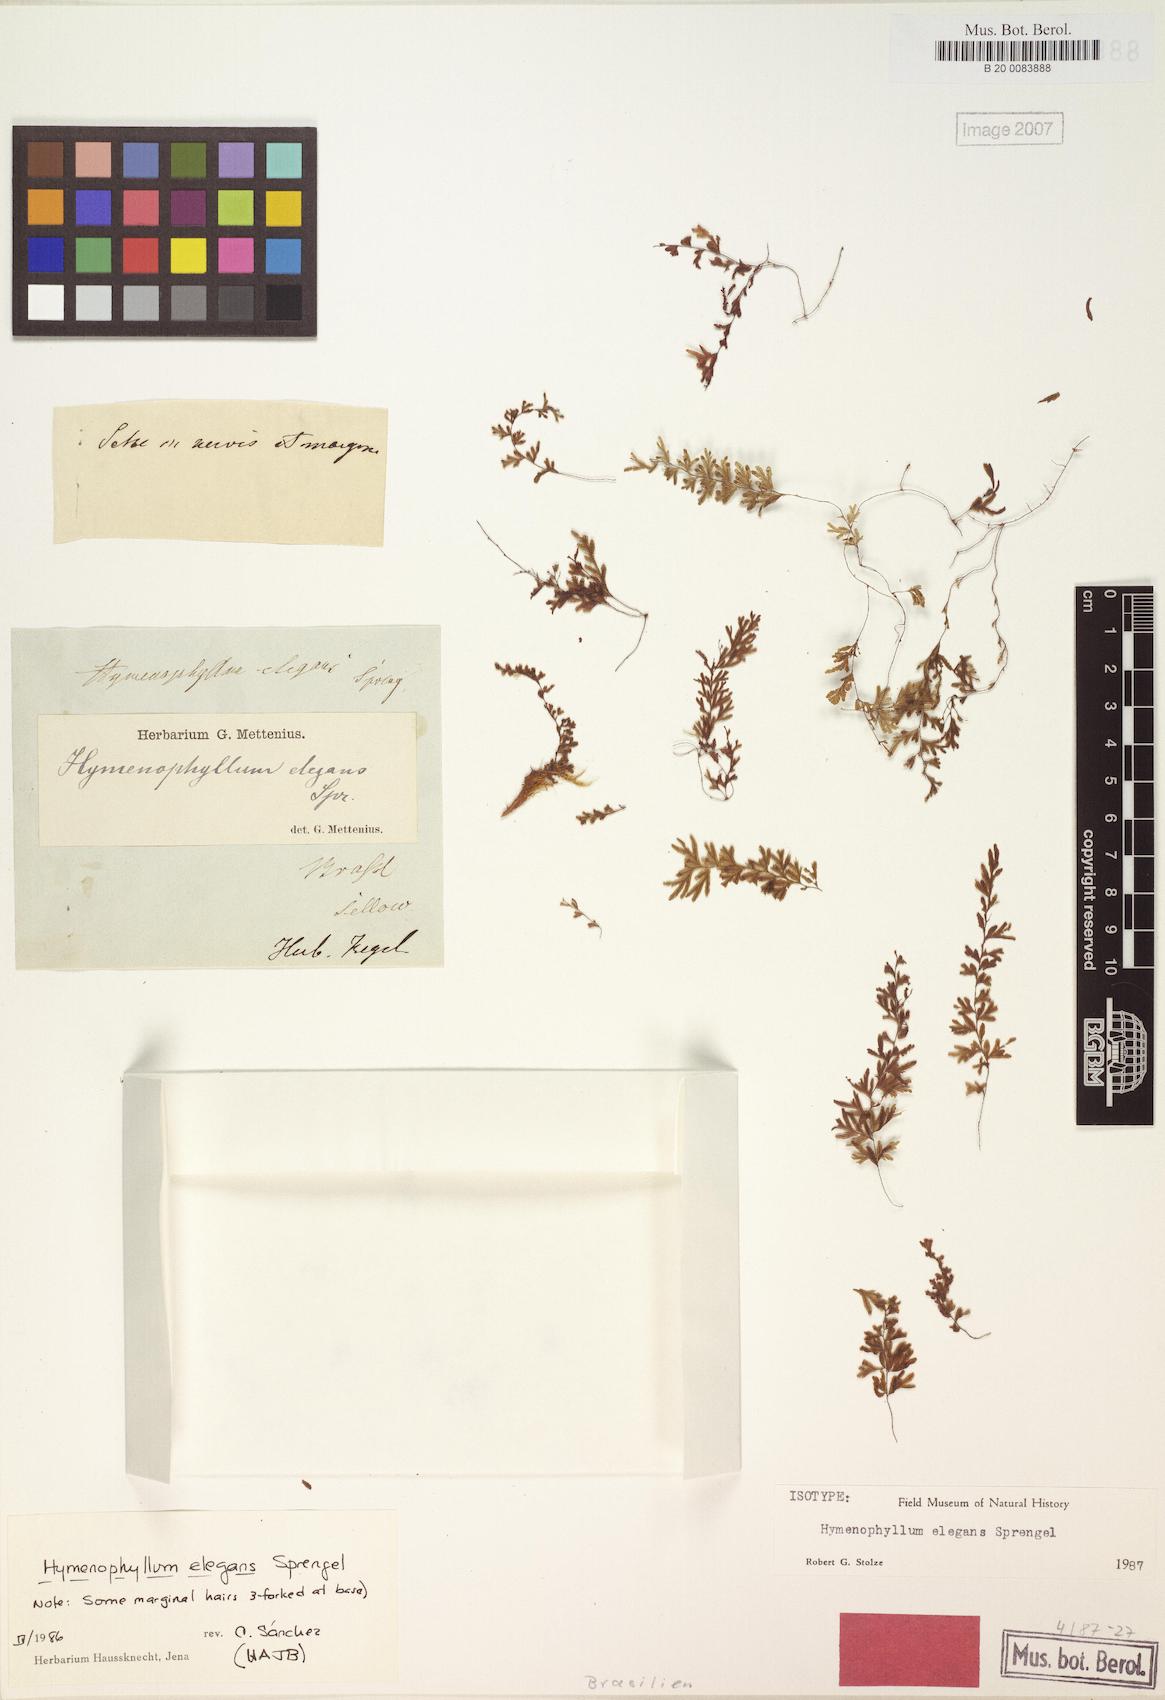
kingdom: Plantae
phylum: Tracheophyta
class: Polypodiopsida
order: Hymenophyllales
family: Hymenophyllaceae
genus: Hymenophyllum
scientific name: Hymenophyllum elegans
